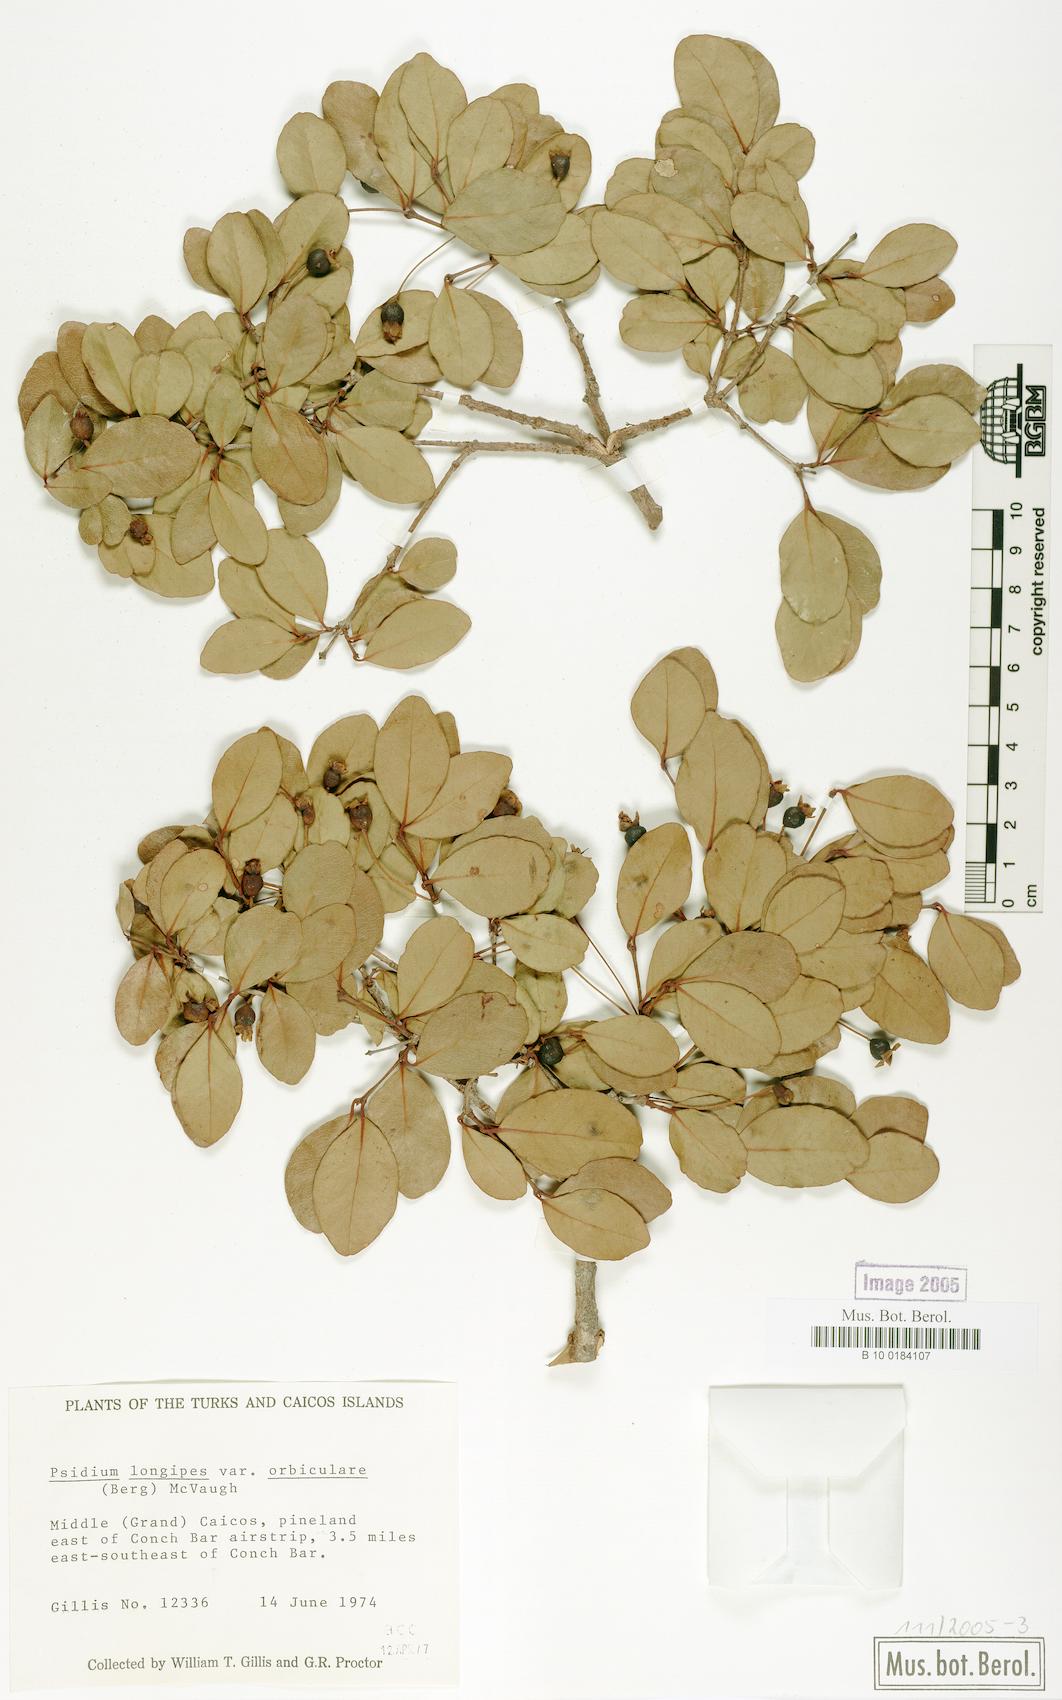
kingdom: Plantae
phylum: Tracheophyta
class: Magnoliopsida
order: Myrtales
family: Myrtaceae
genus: Mosiera
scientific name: Mosiera longipes
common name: Bahama stopper
